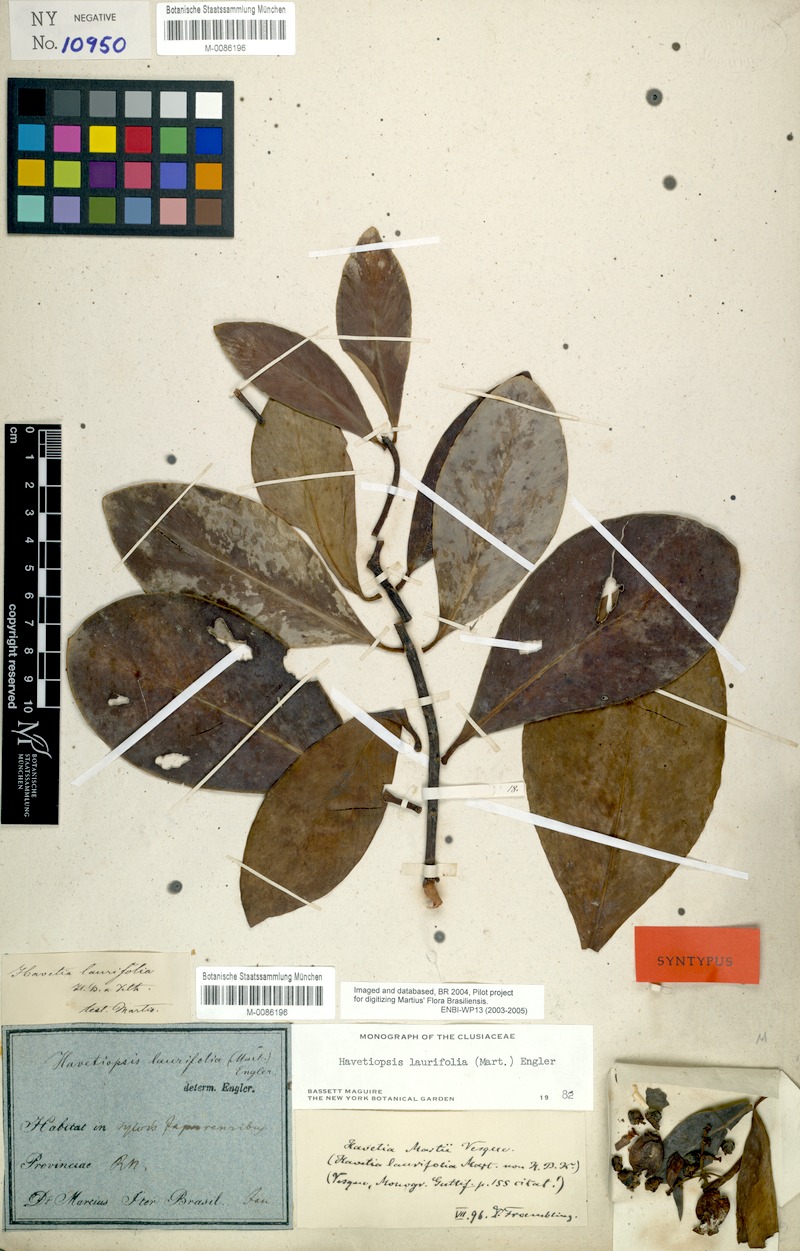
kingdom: Plantae
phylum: Tracheophyta
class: Magnoliopsida
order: Malpighiales
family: Clusiaceae
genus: Clusia
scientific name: Clusia flavida
